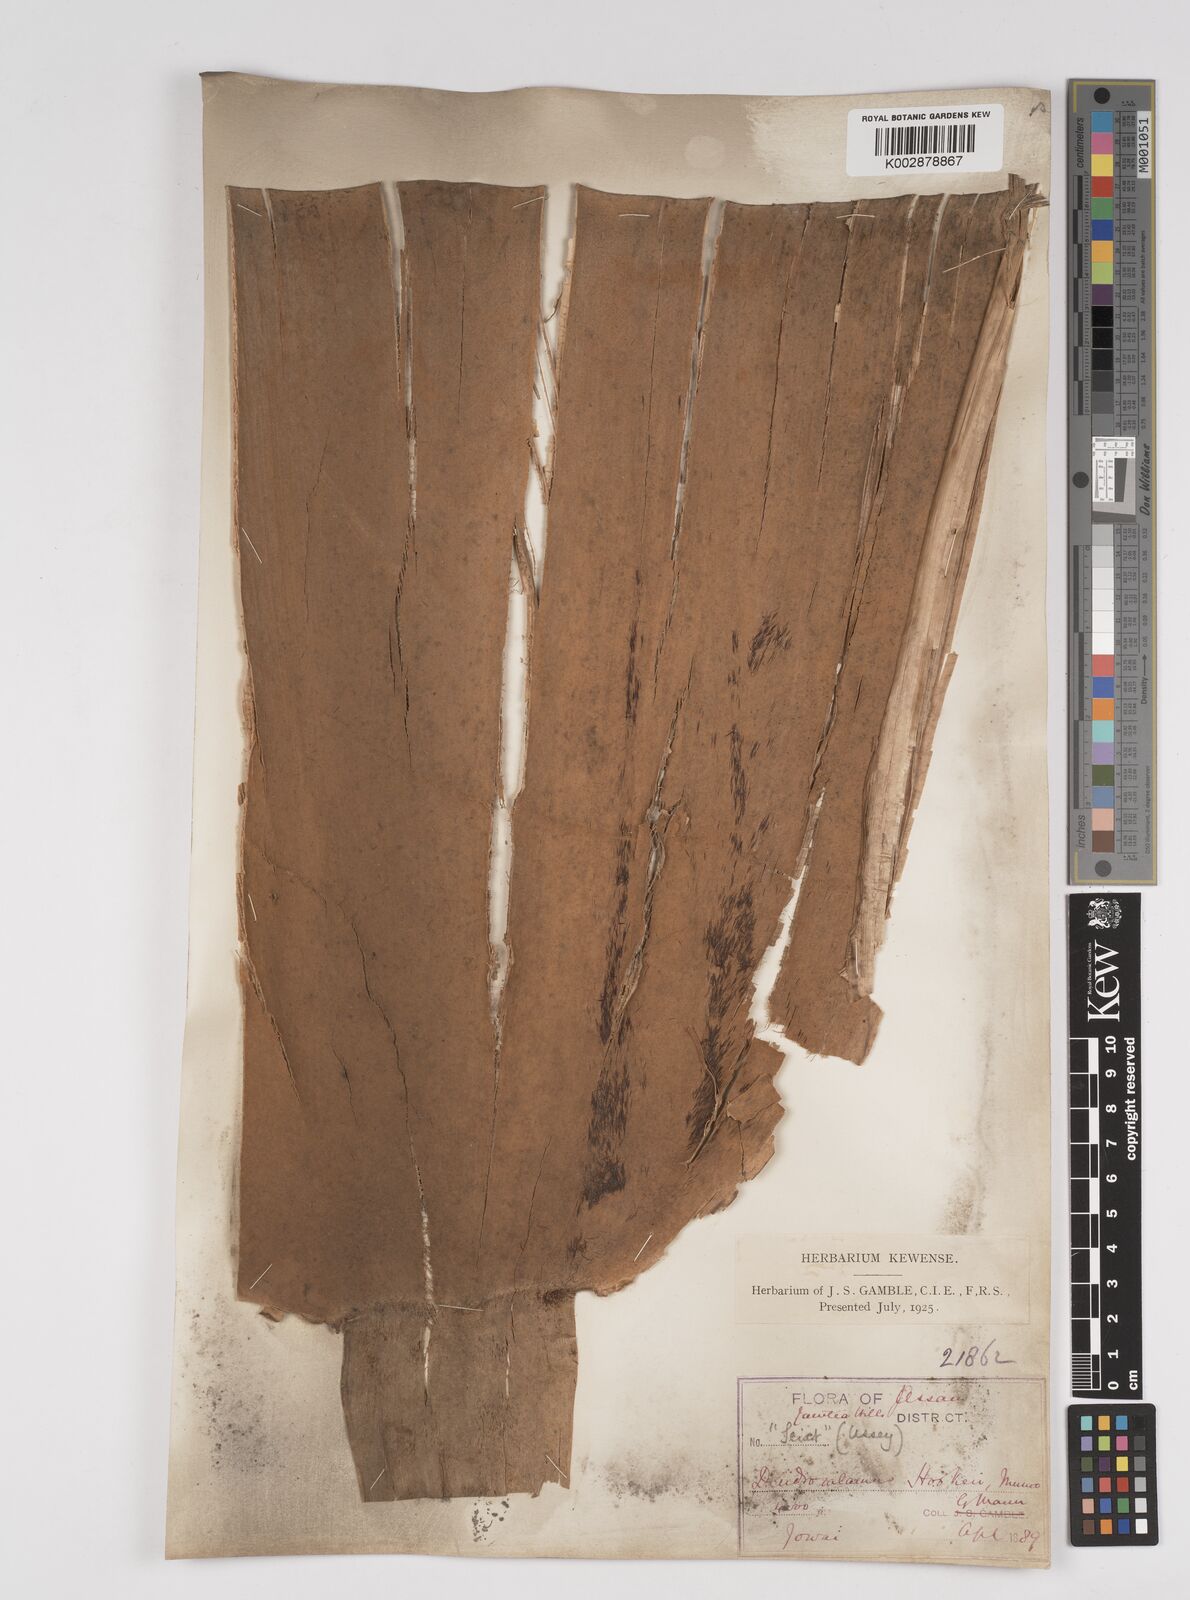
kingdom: Plantae
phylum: Tracheophyta
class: Liliopsida
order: Poales
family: Poaceae
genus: Dendrocalamus
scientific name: Dendrocalamus hookeri
